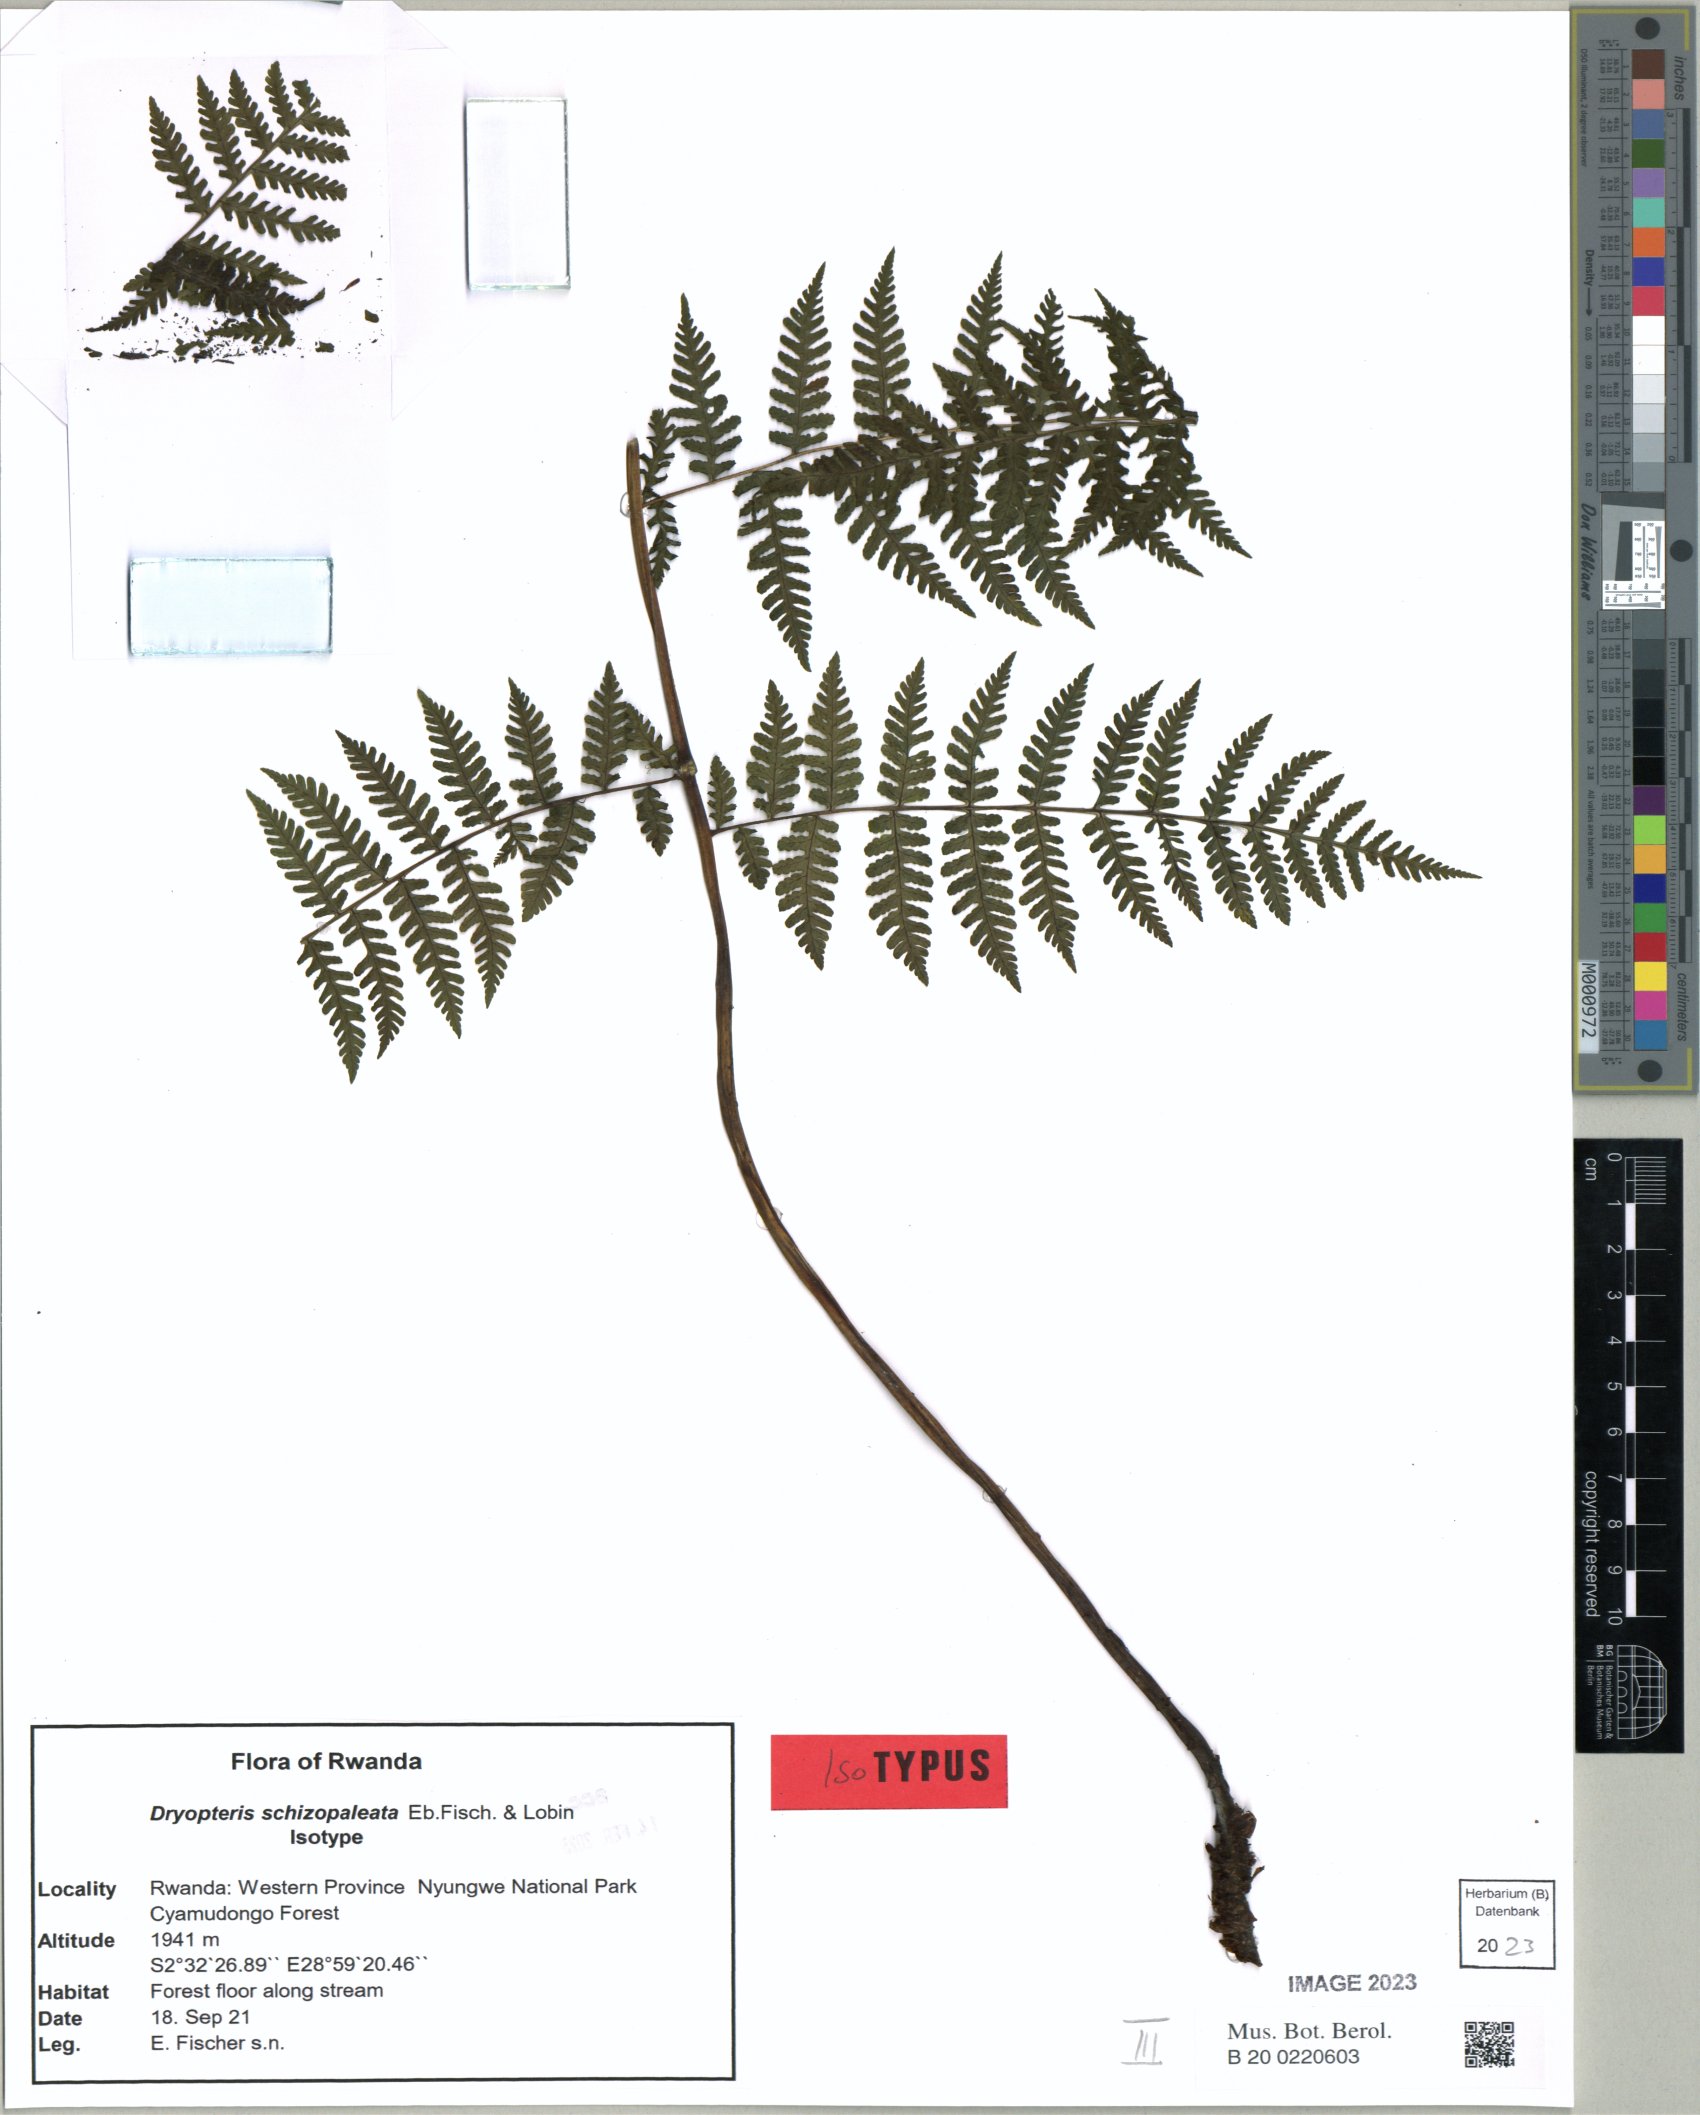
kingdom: Plantae
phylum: Tracheophyta
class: Polypodiopsida
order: Polypodiales
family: Dryopteridaceae
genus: Dryopteris
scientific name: Dryopteris schizopaleata
